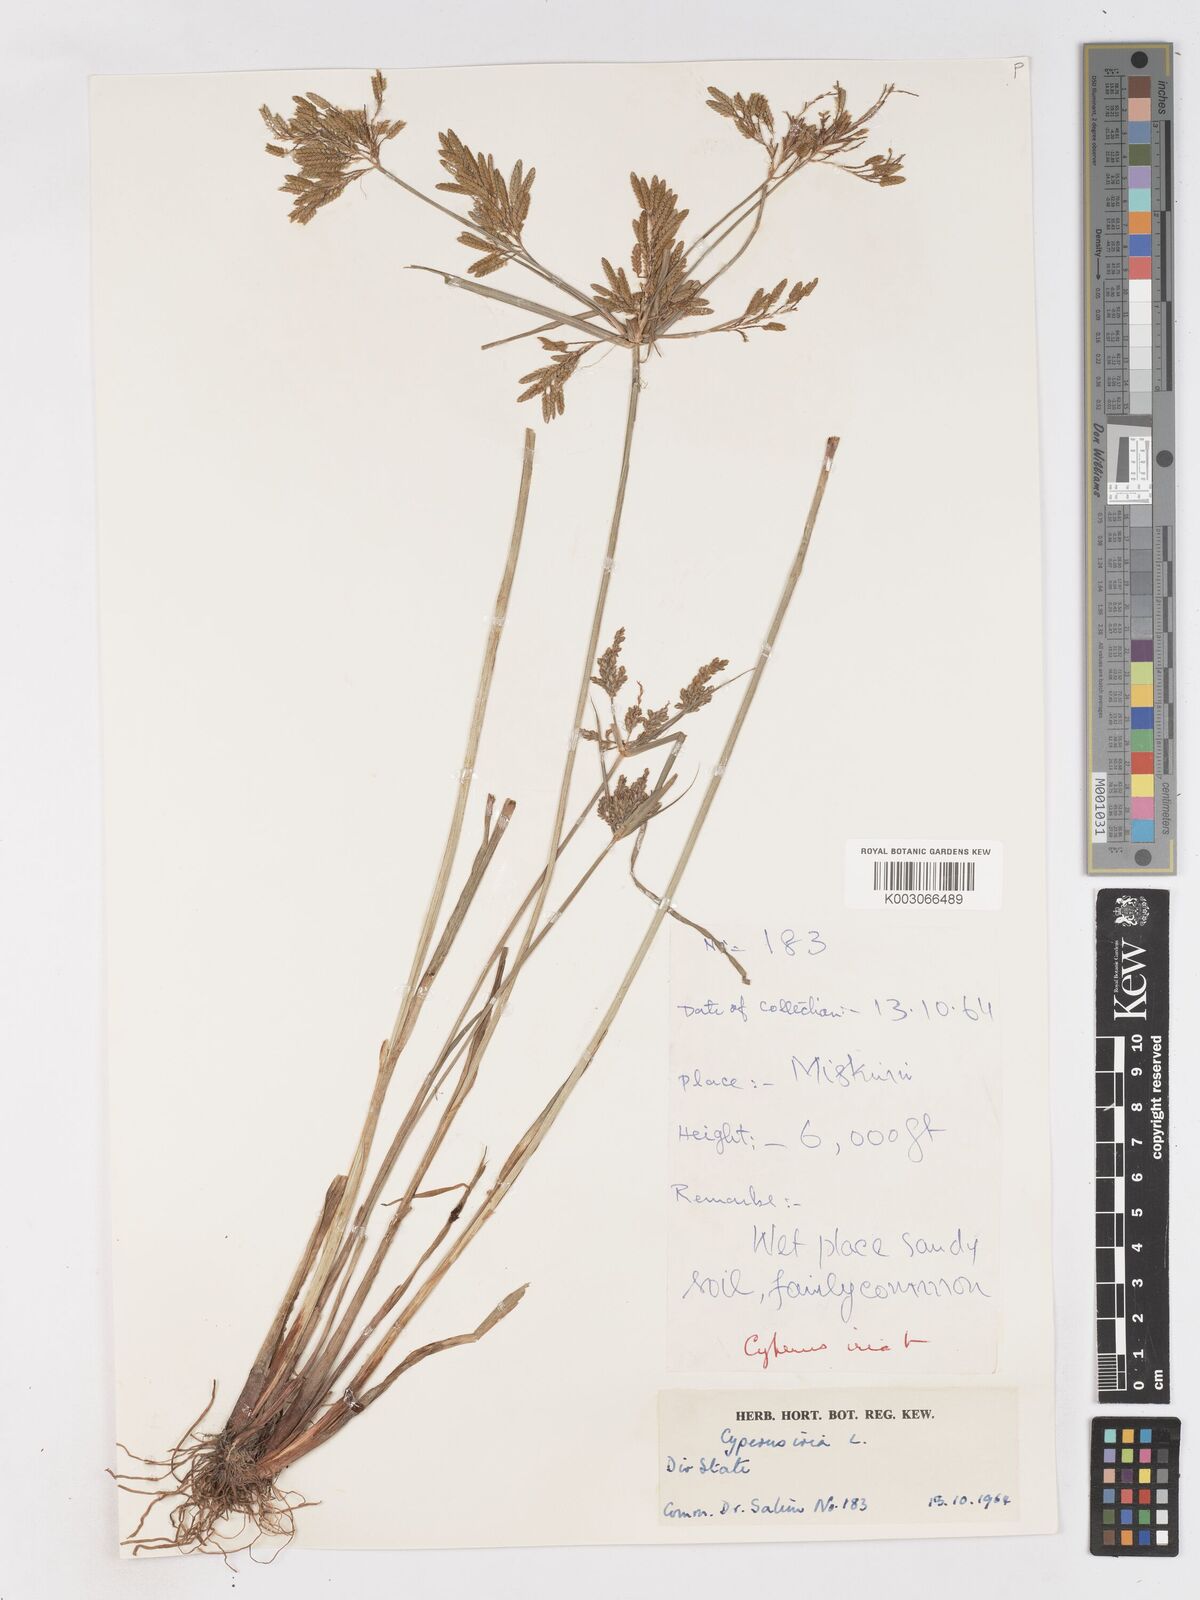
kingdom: Plantae
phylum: Tracheophyta
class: Liliopsida
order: Poales
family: Cyperaceae
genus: Cyperus
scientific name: Cyperus iria
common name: Ricefield flatsedge
